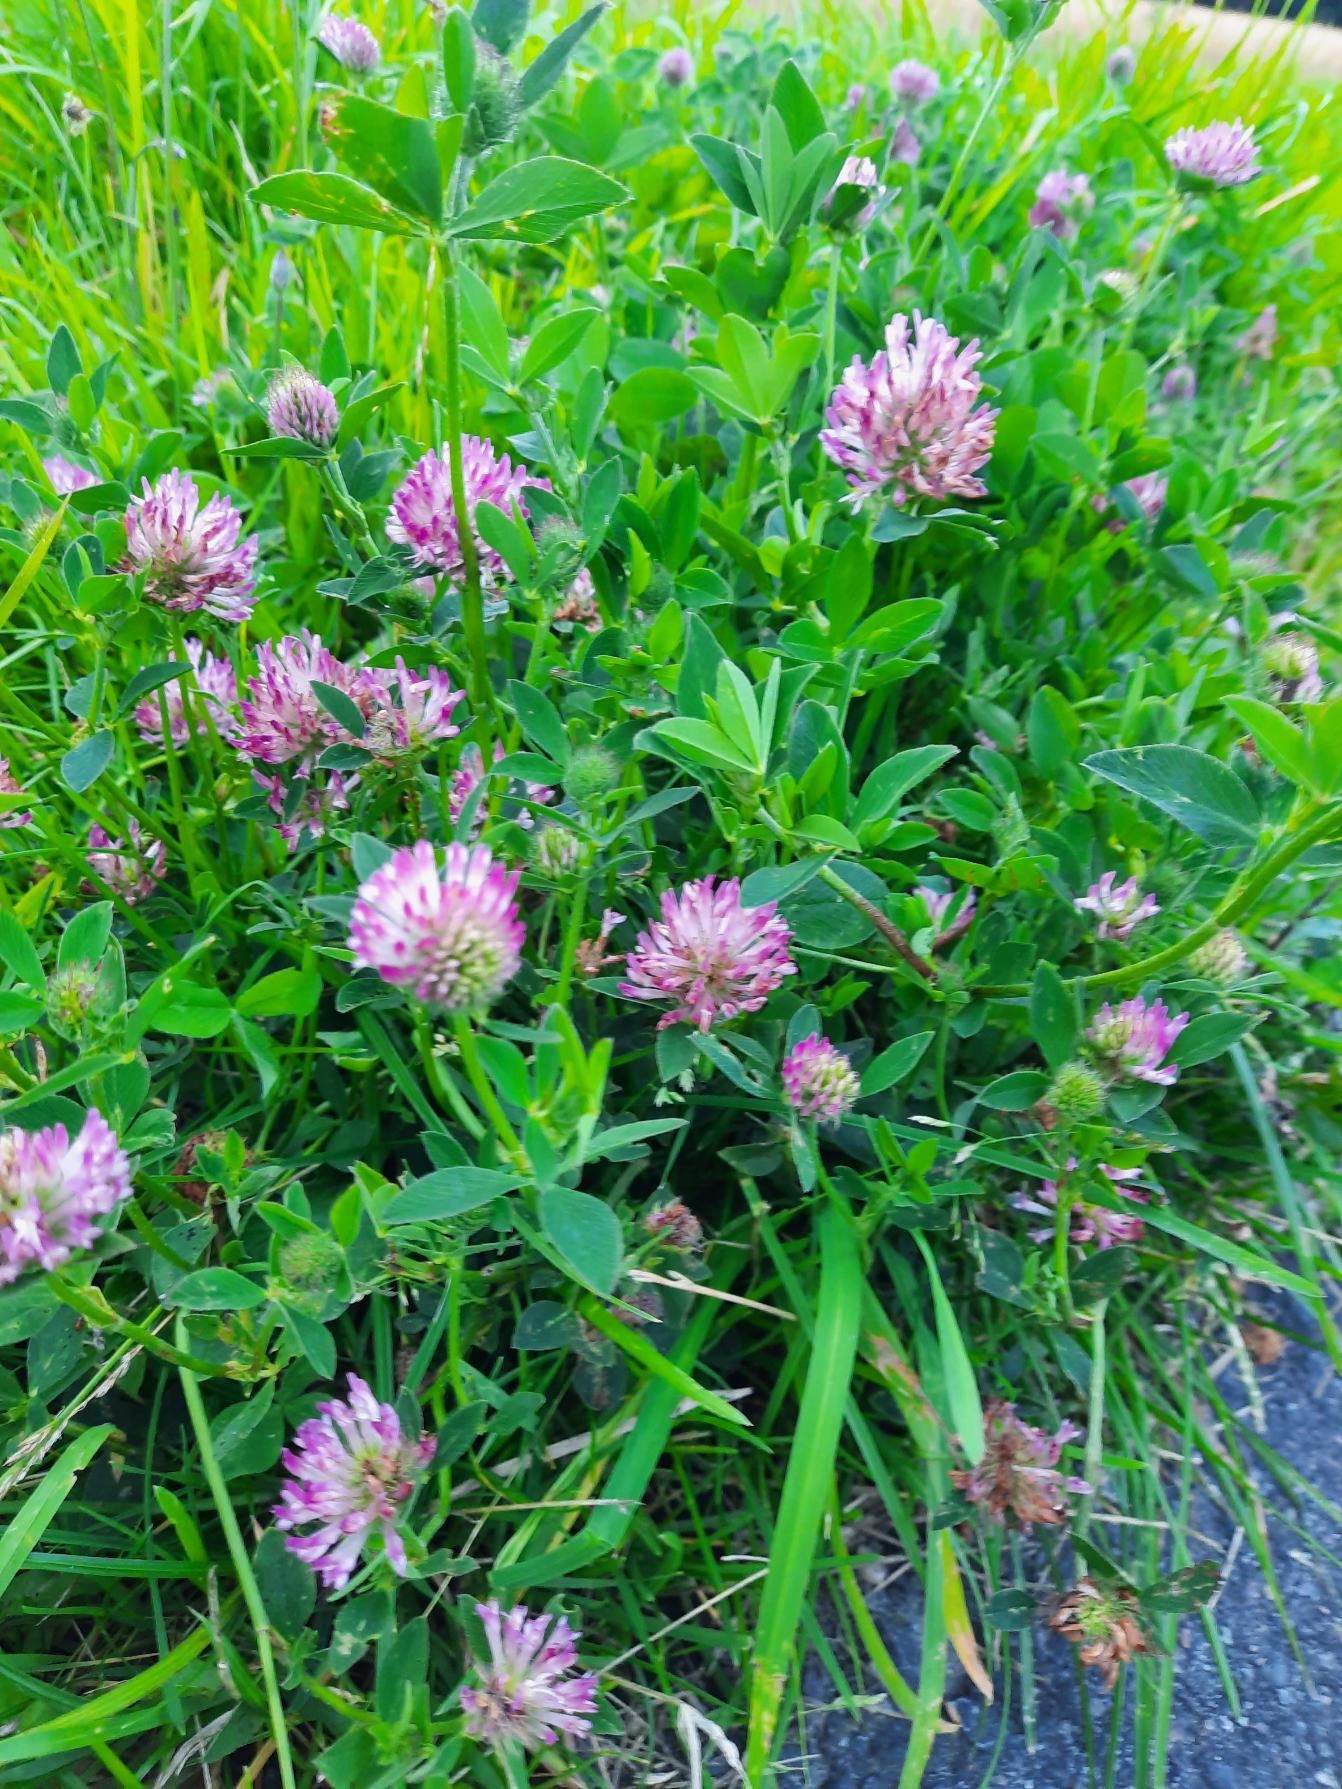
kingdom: Plantae
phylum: Tracheophyta
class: Magnoliopsida
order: Fabales
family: Fabaceae
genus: Trifolium
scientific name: Trifolium pratense
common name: Rød-kløver
